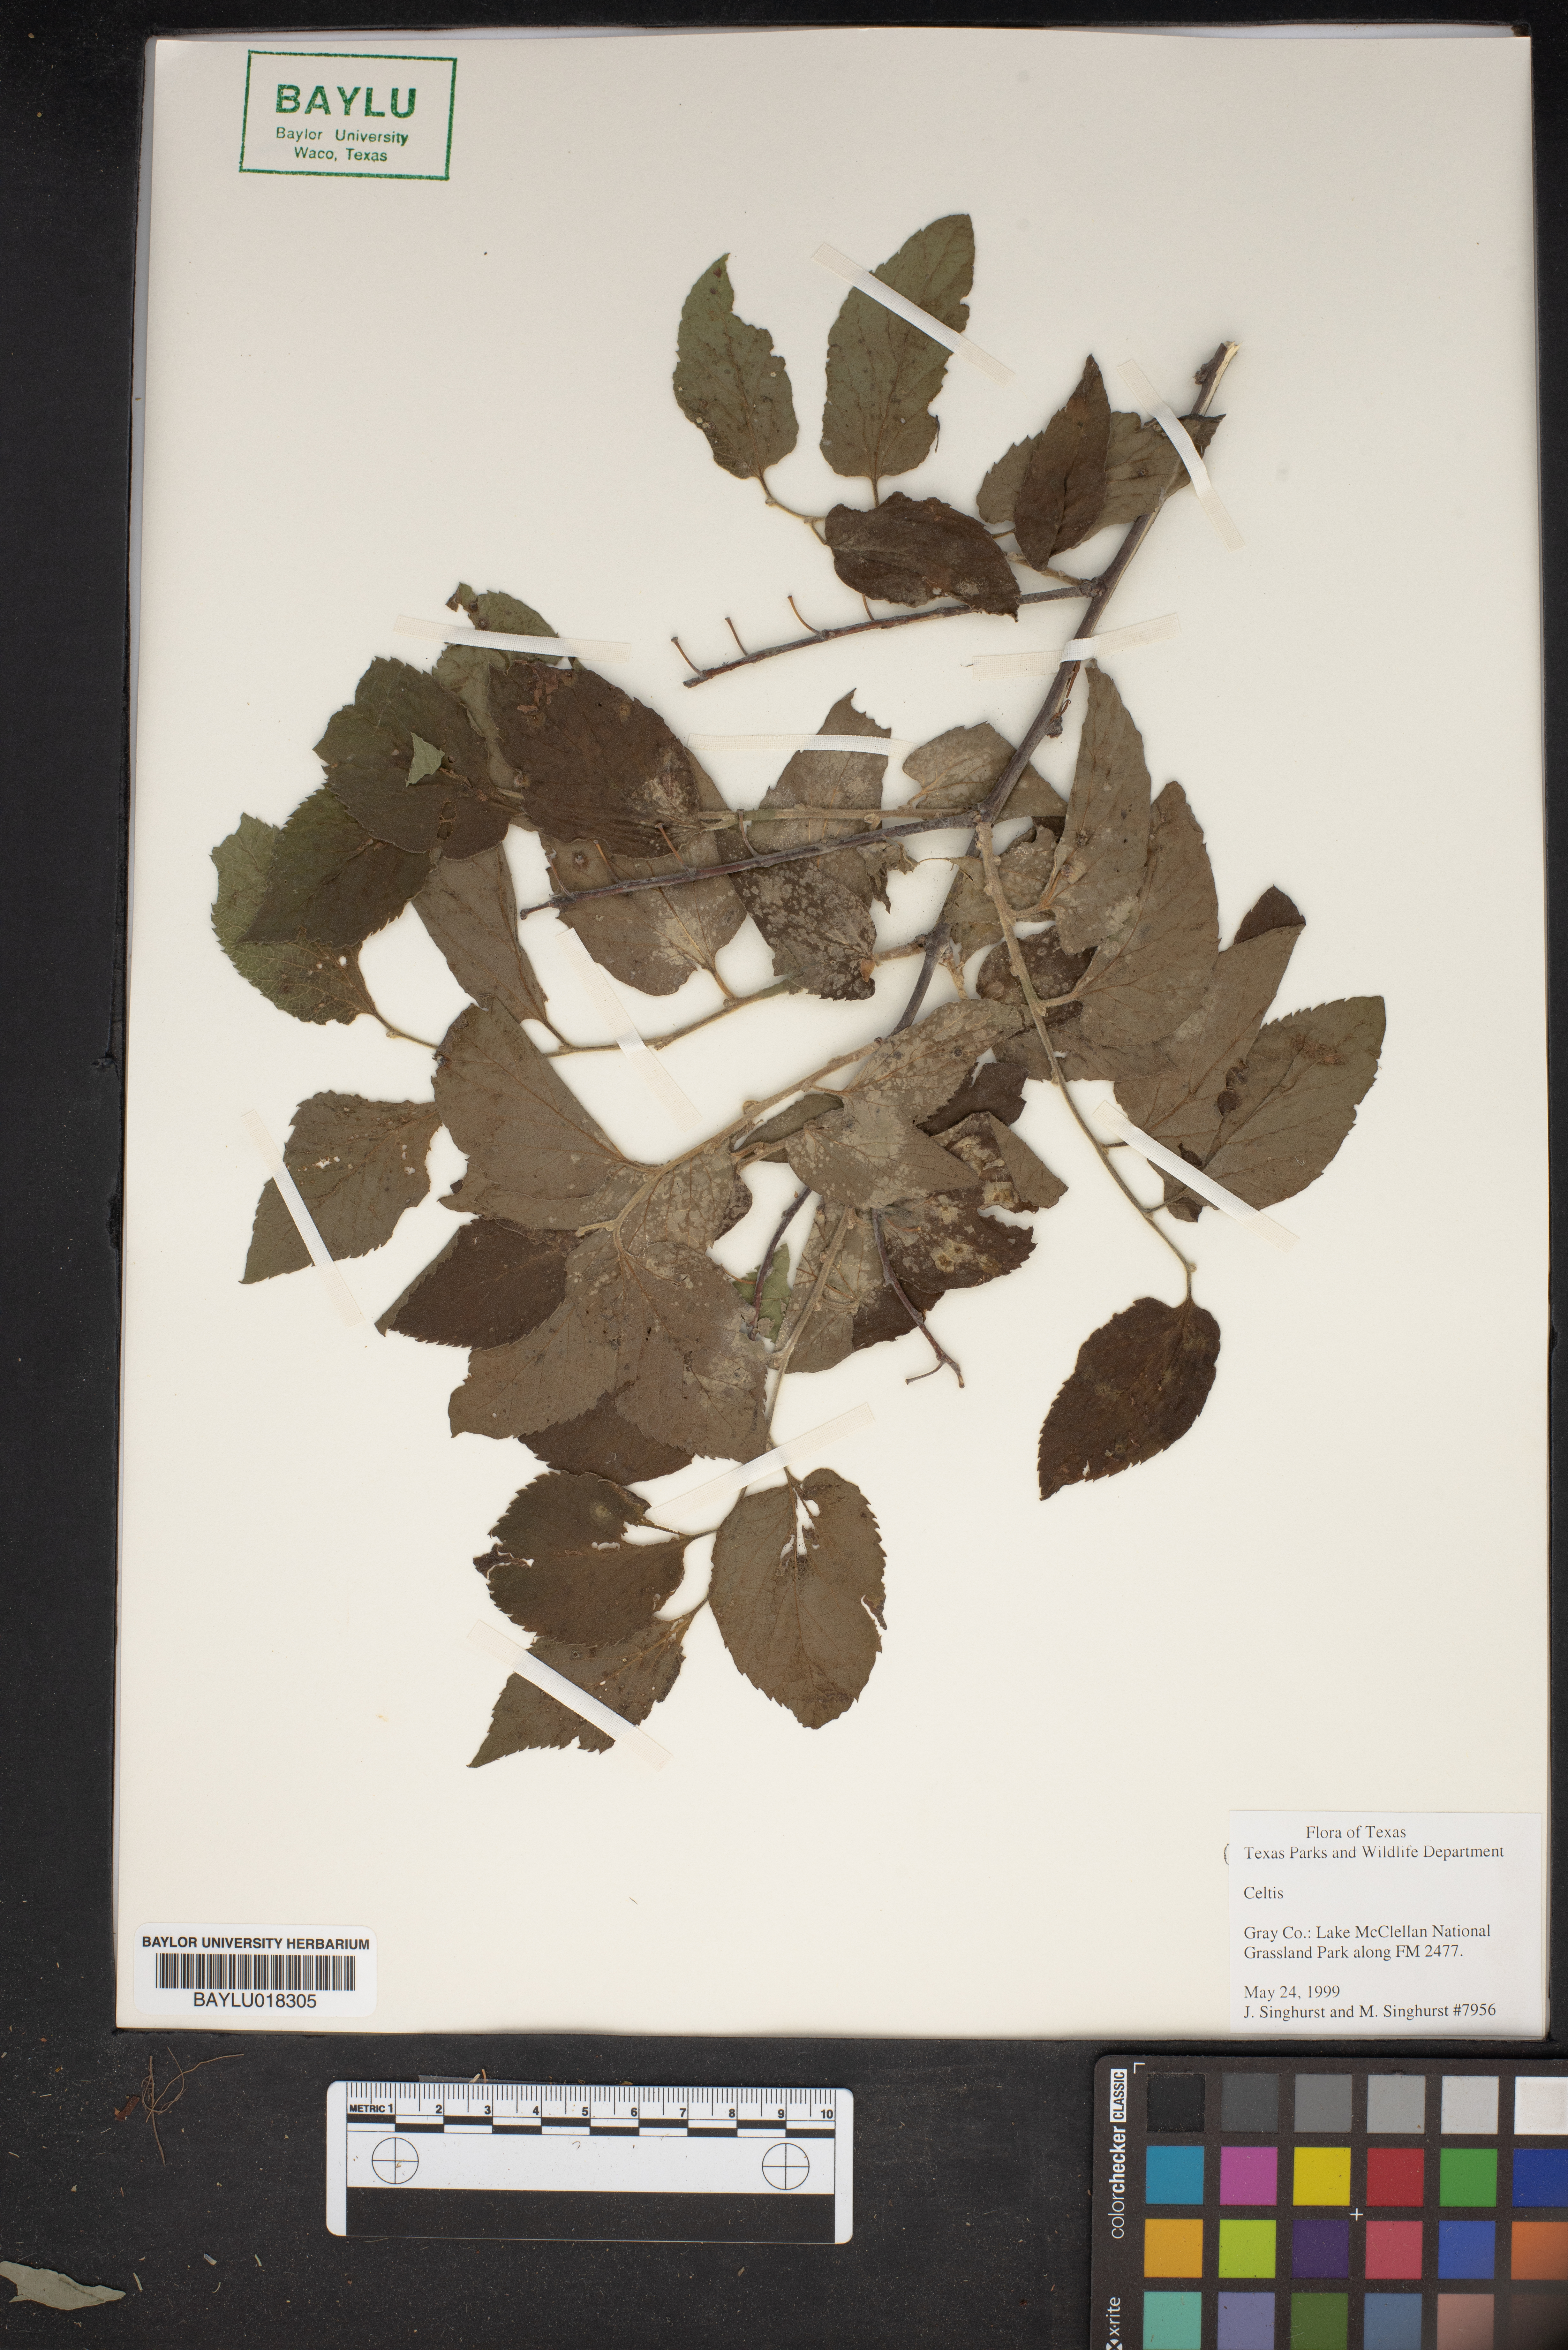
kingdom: Plantae
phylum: Tracheophyta
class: Magnoliopsida
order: Rosales
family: Cannabaceae
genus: Celtis
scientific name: Celtis
